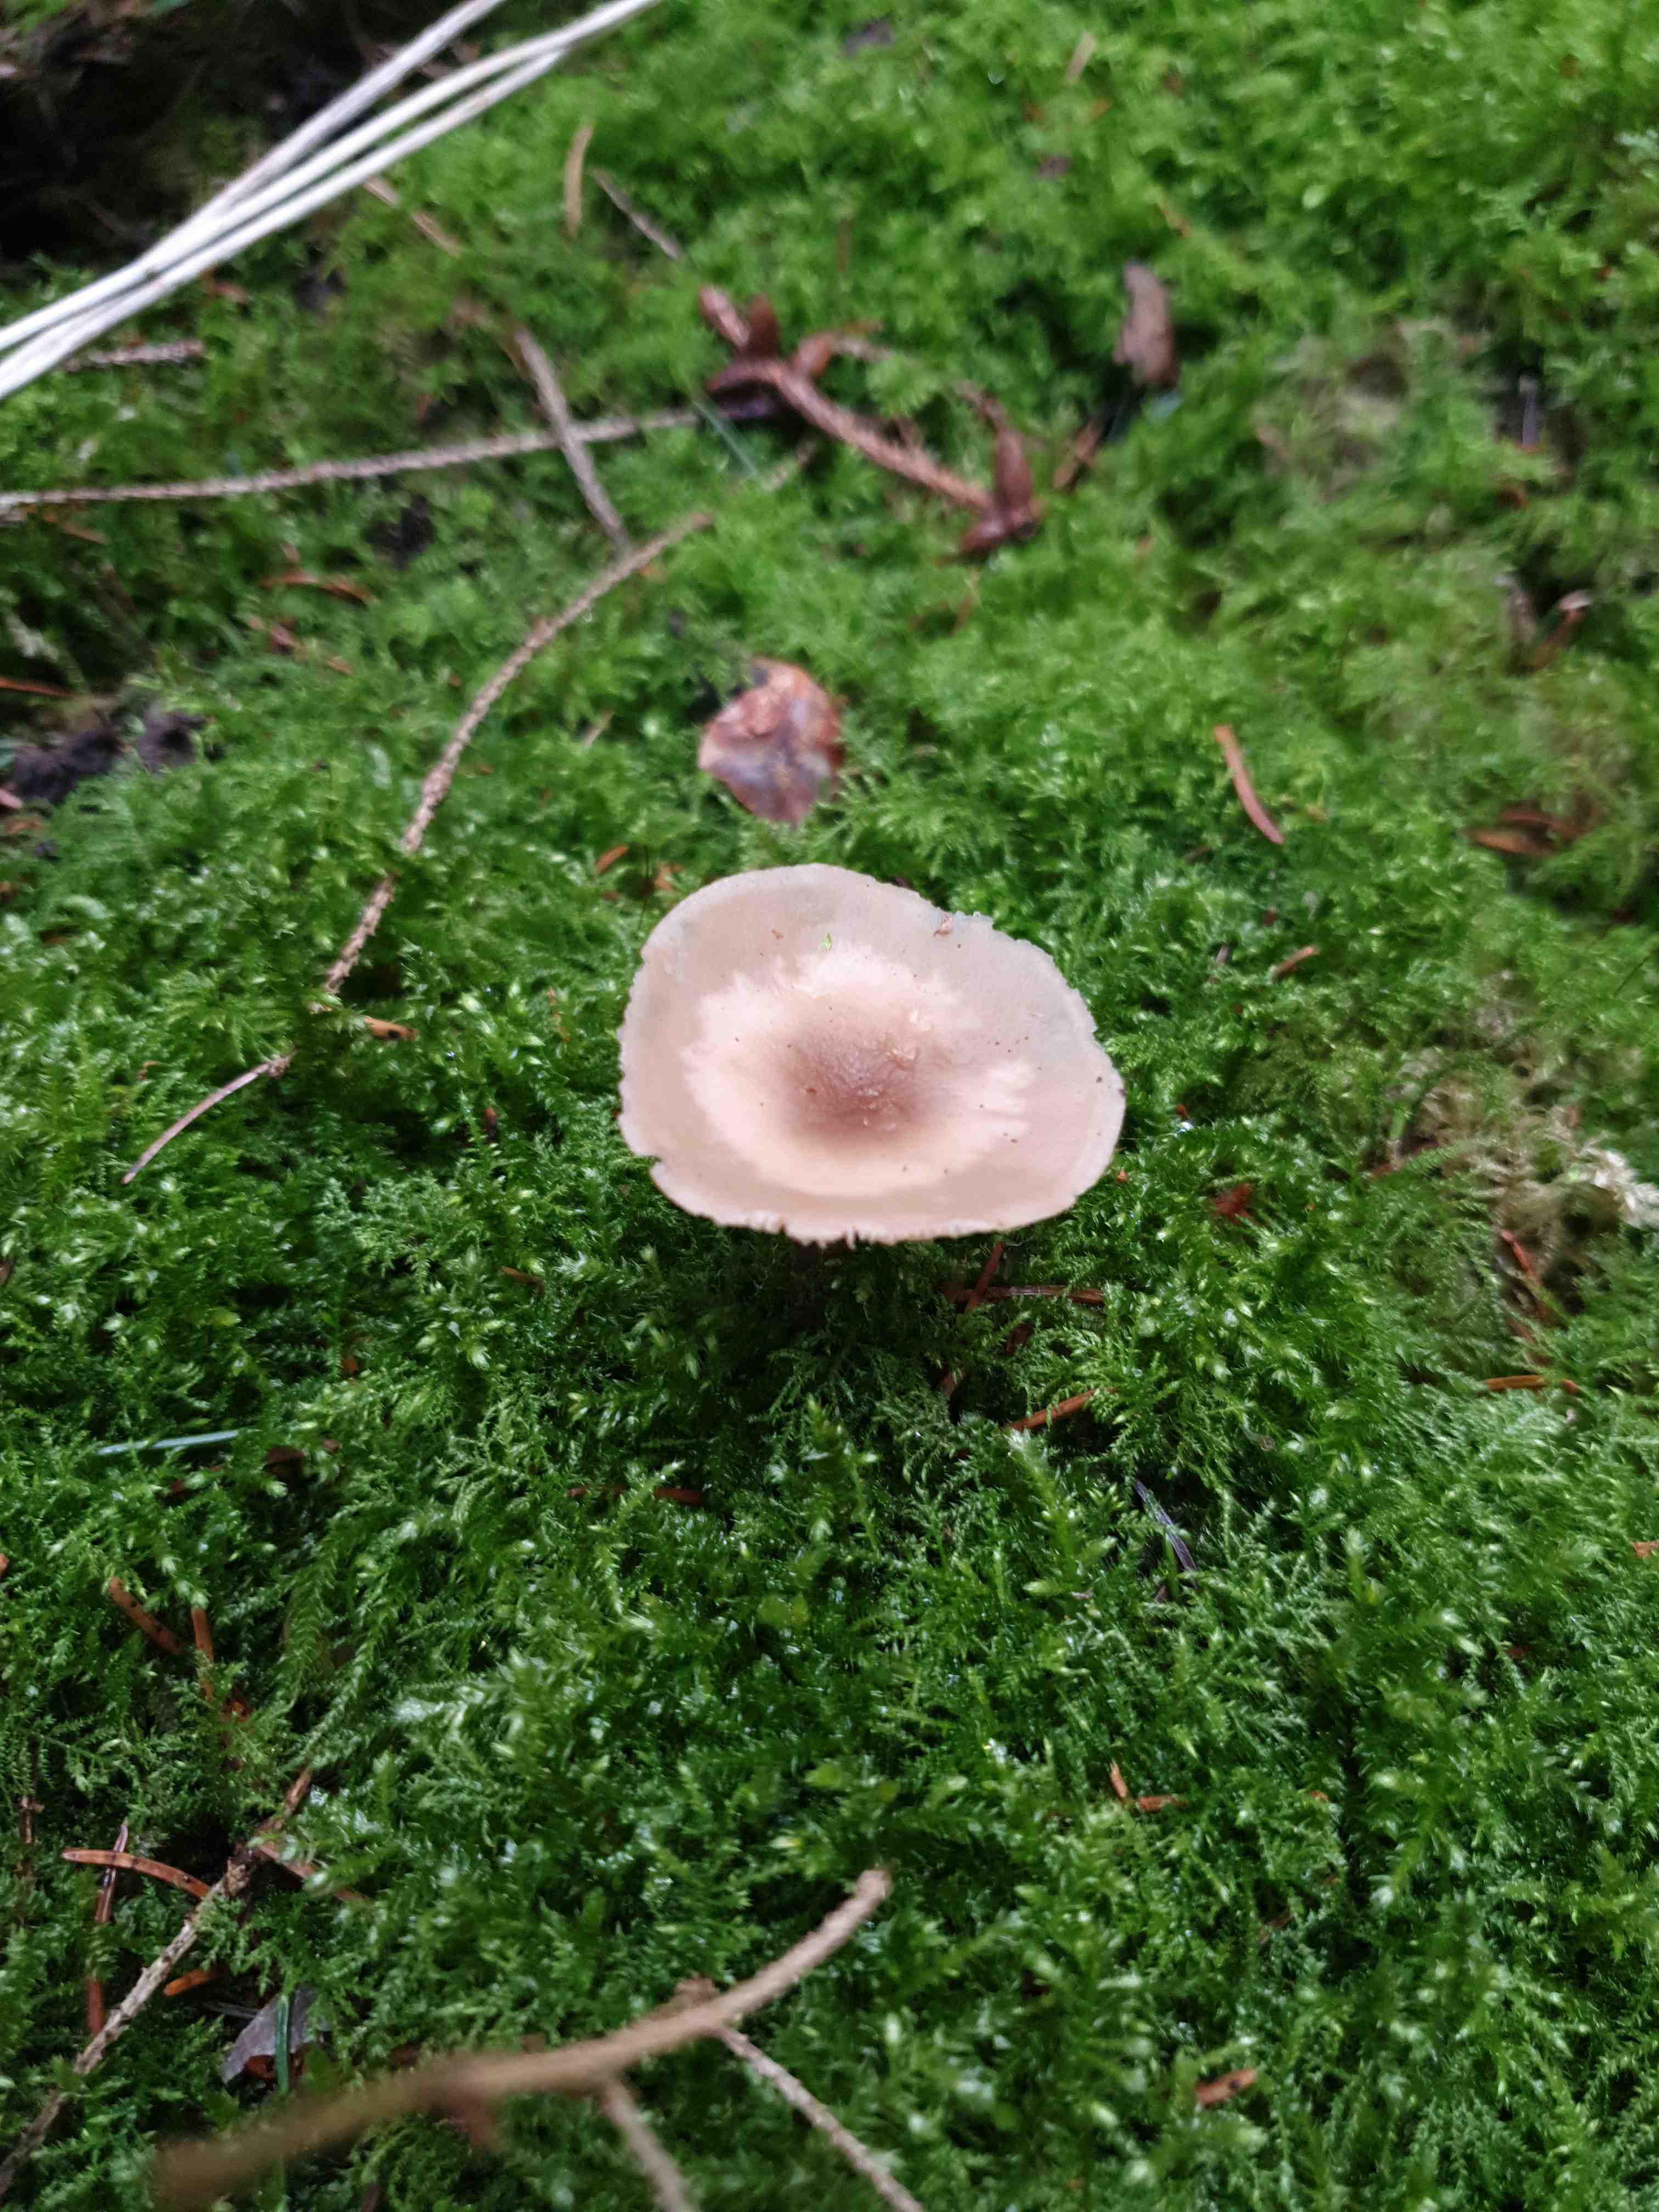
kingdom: Fungi
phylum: Basidiomycota
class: Agaricomycetes
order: Agaricales
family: Tricholomataceae
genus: Clitocybe
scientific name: Clitocybe fragrans
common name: vellugtende tragthat
